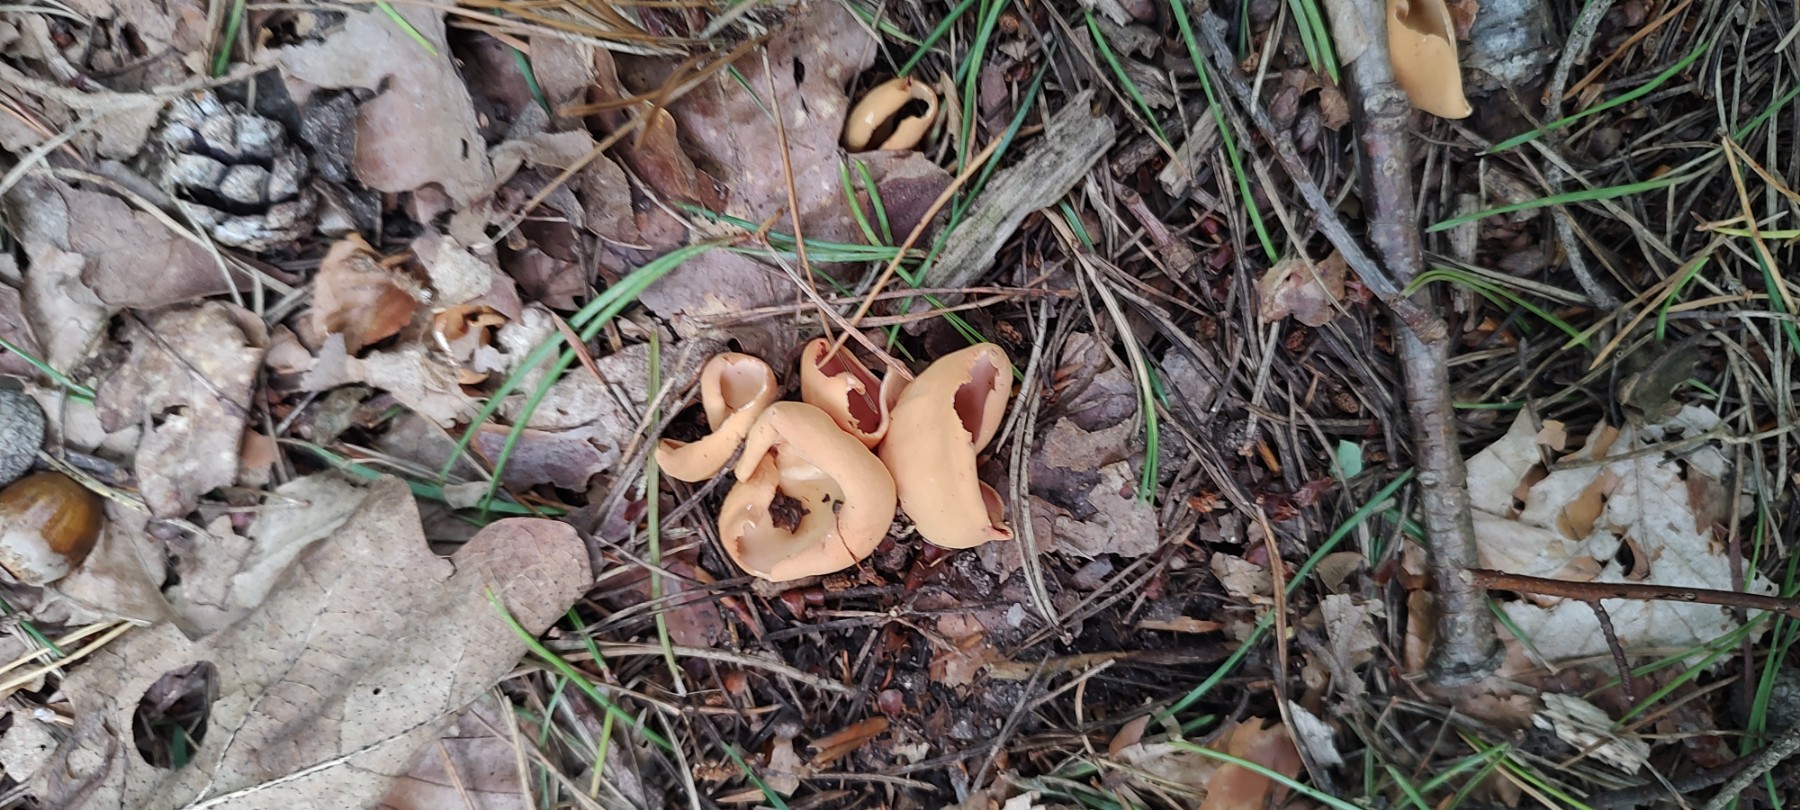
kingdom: Fungi
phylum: Ascomycota
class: Pezizomycetes
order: Pezizales
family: Otideaceae
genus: Otidea
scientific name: Otidea onotica
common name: æsel-ørebæger
